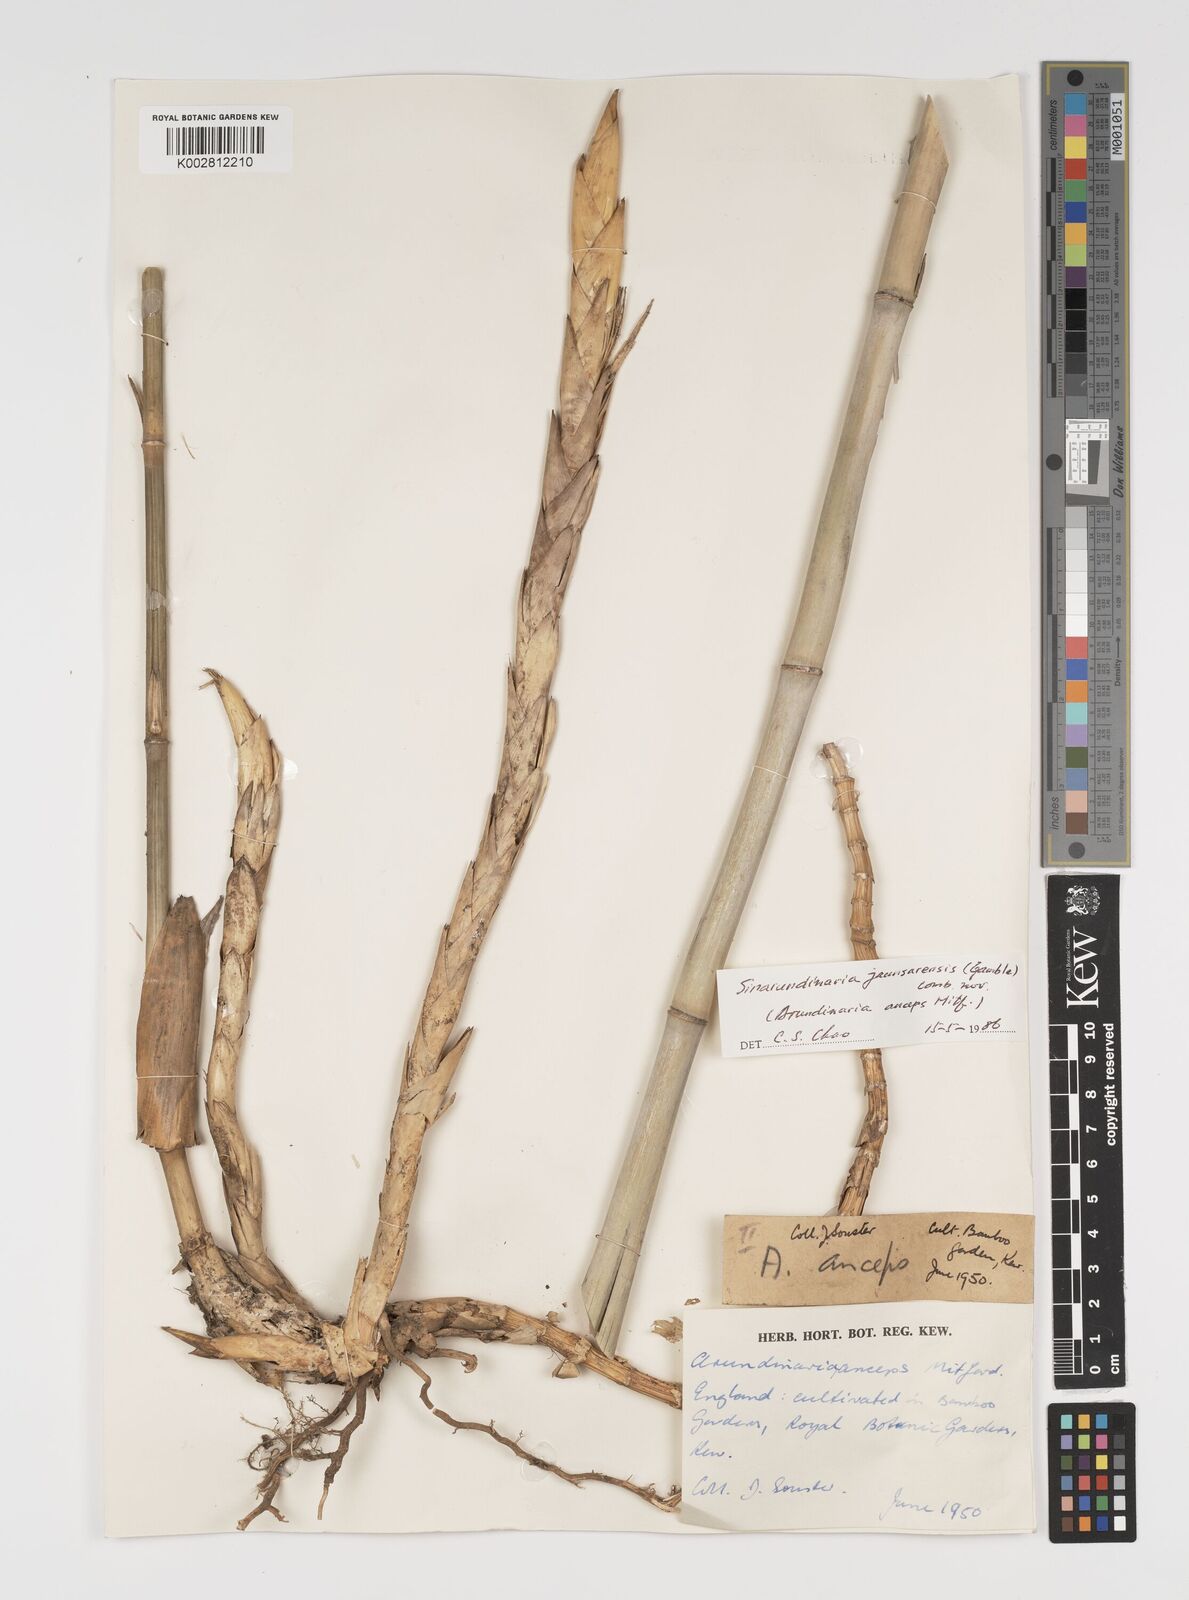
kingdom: Plantae
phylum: Tracheophyta
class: Liliopsida
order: Poales
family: Poaceae
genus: Yushania
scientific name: Yushania anceps
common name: Indian fountain-bamboo
